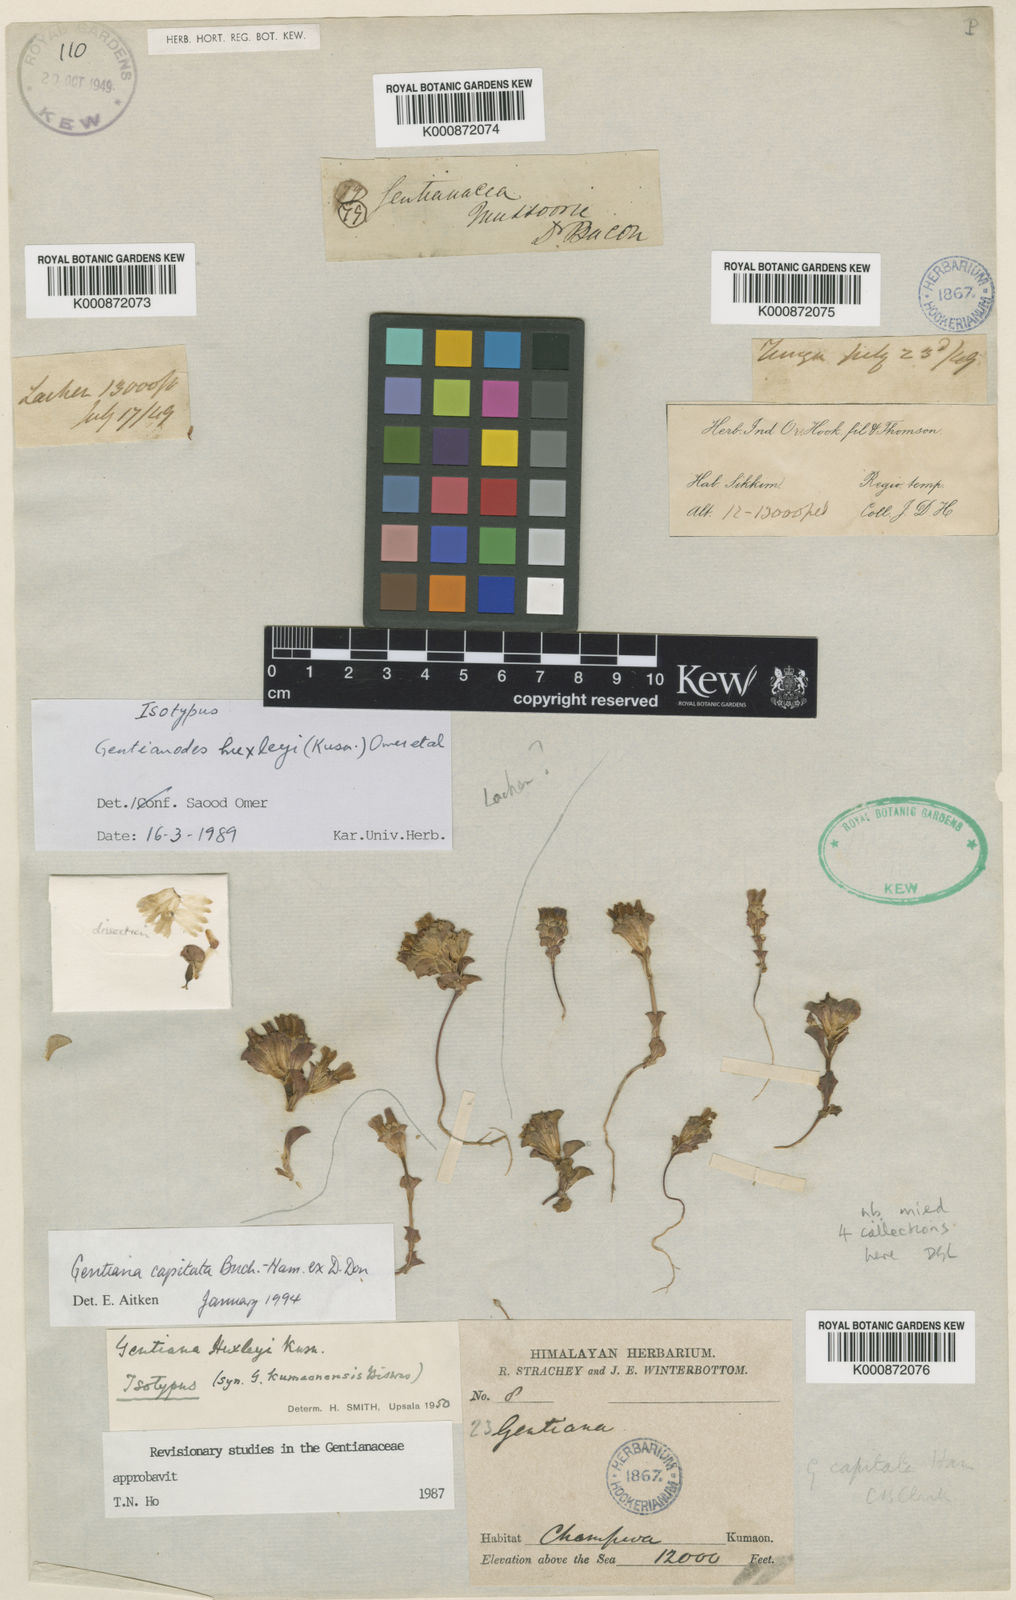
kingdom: Plantae
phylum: Tracheophyta
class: Magnoliopsida
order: Gentianales
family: Gentianaceae
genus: Gentiana
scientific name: Gentiana huxleyi
